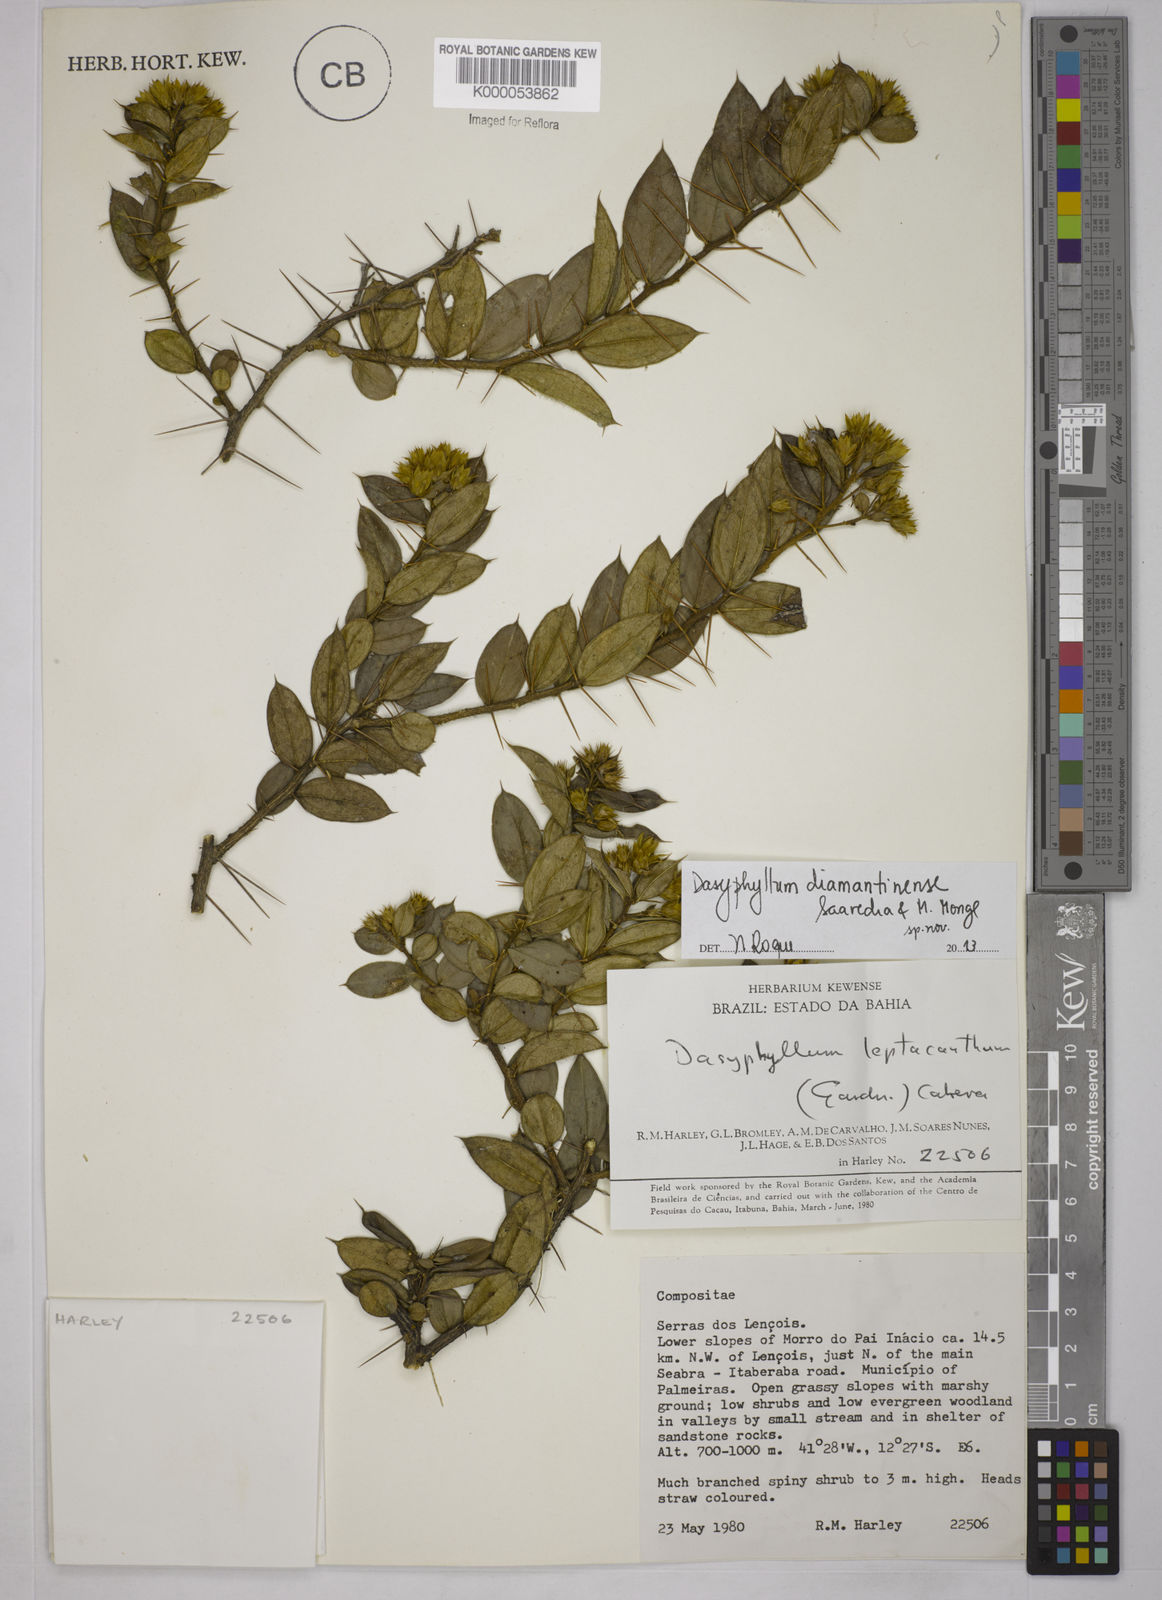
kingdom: Plantae
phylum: Tracheophyta
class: Magnoliopsida
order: Asterales
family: Asteraceae
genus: Dasyphyllum
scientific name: Dasyphyllum leptacanthum
